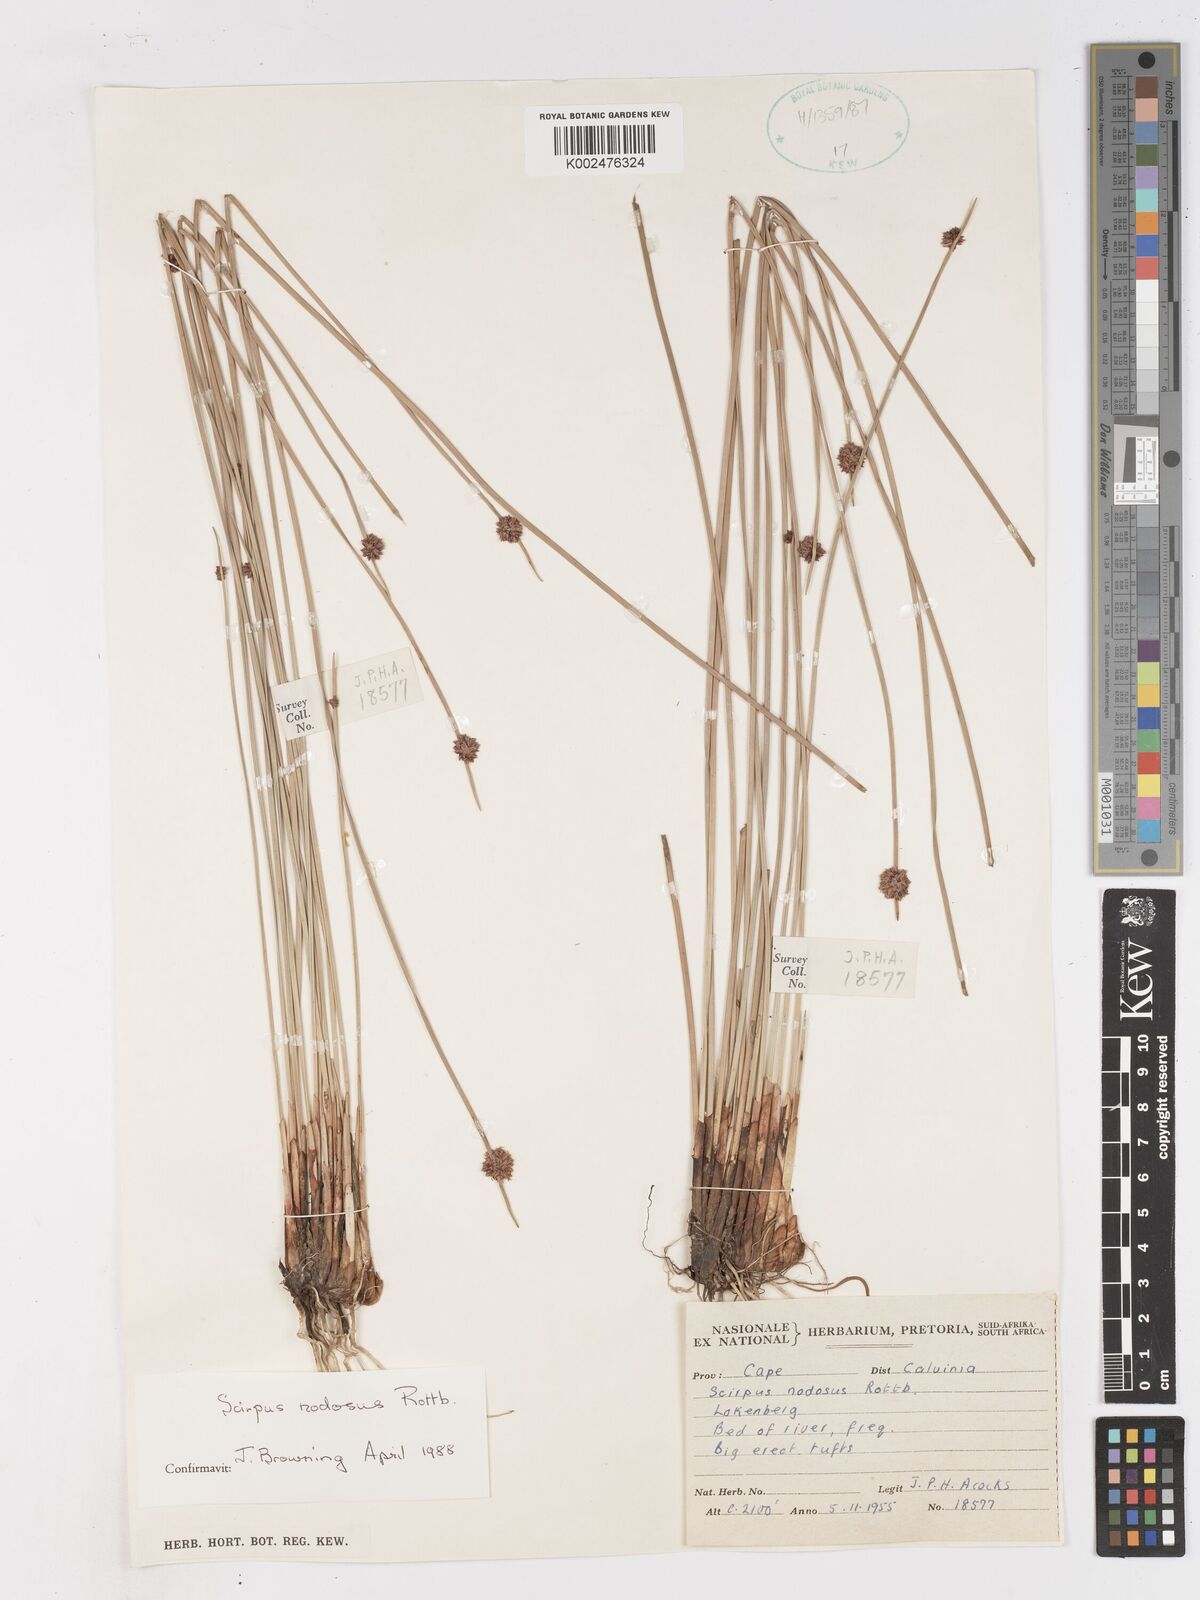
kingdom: Plantae
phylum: Tracheophyta
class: Liliopsida
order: Poales
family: Cyperaceae
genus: Ficinia
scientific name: Ficinia nodosa
